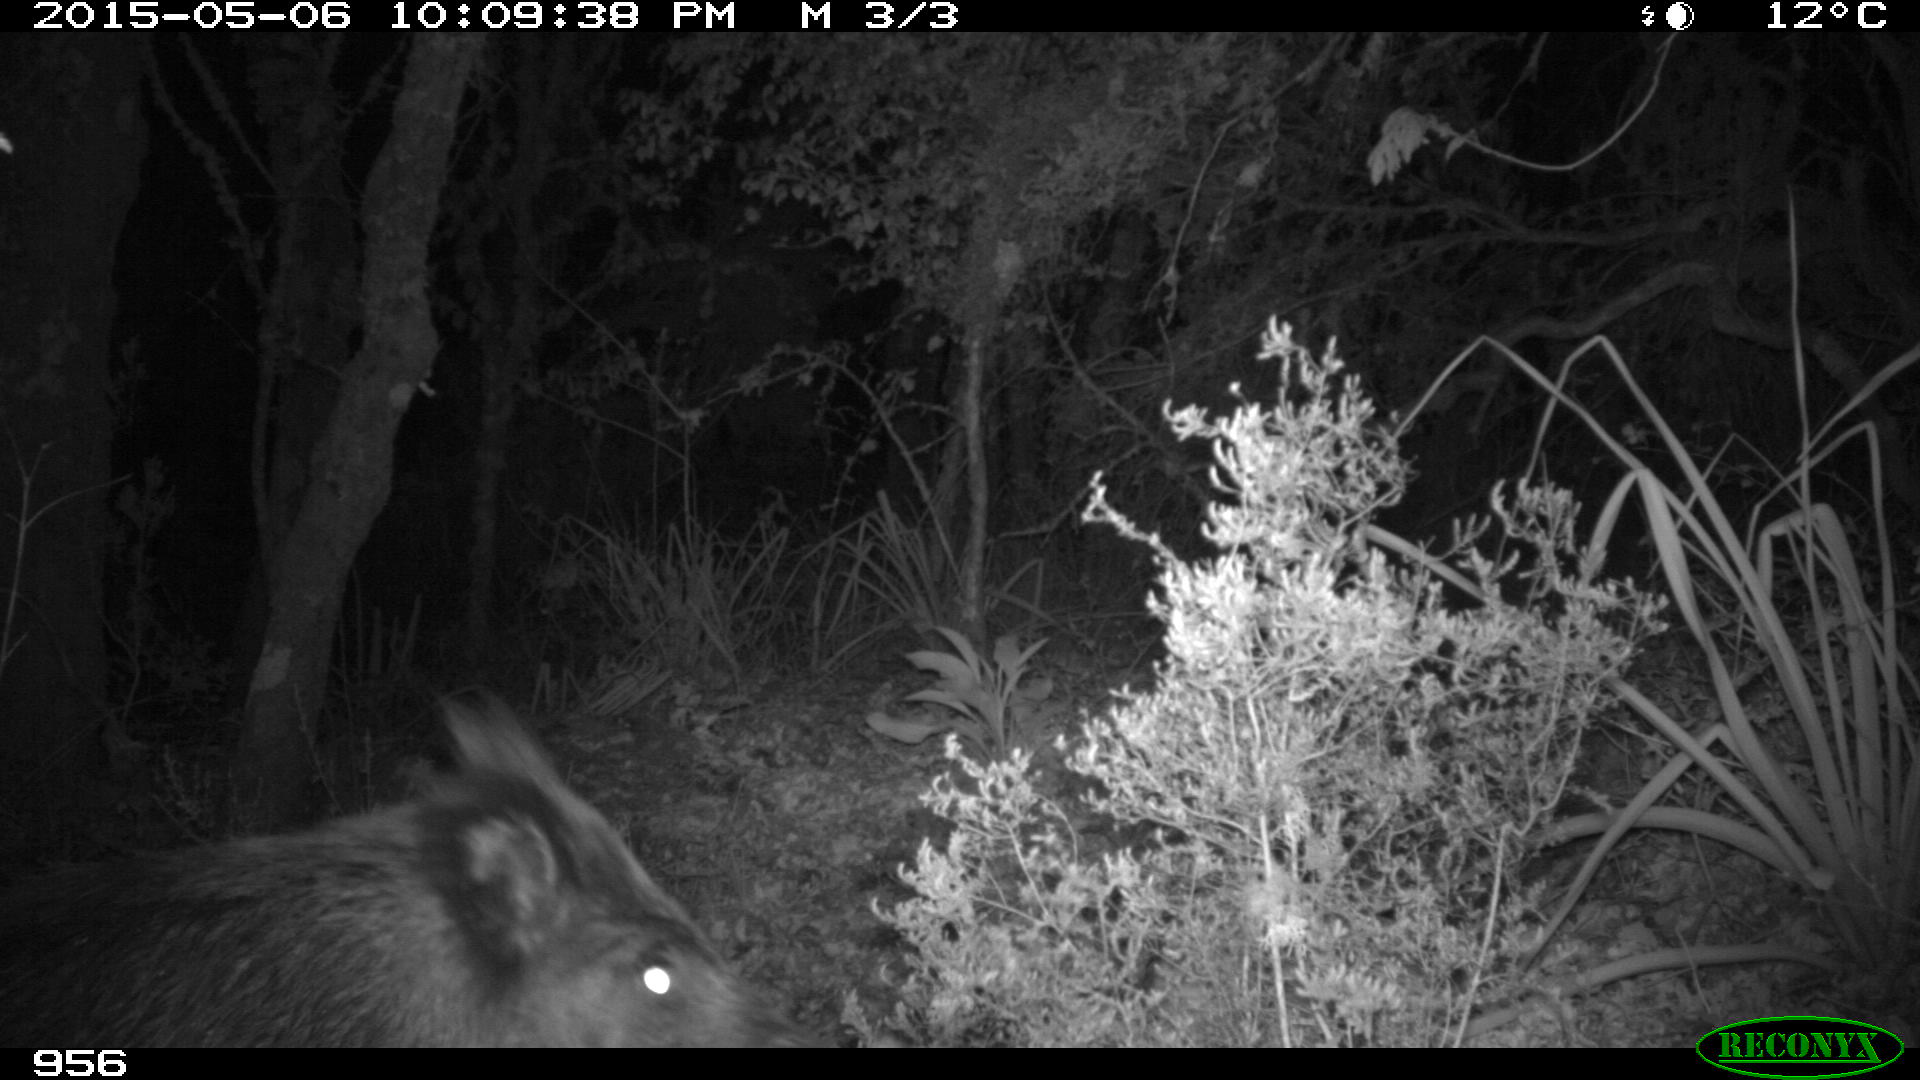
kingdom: Animalia
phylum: Chordata
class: Mammalia
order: Artiodactyla
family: Suidae
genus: Sus
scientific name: Sus scrofa
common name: Wild boar
